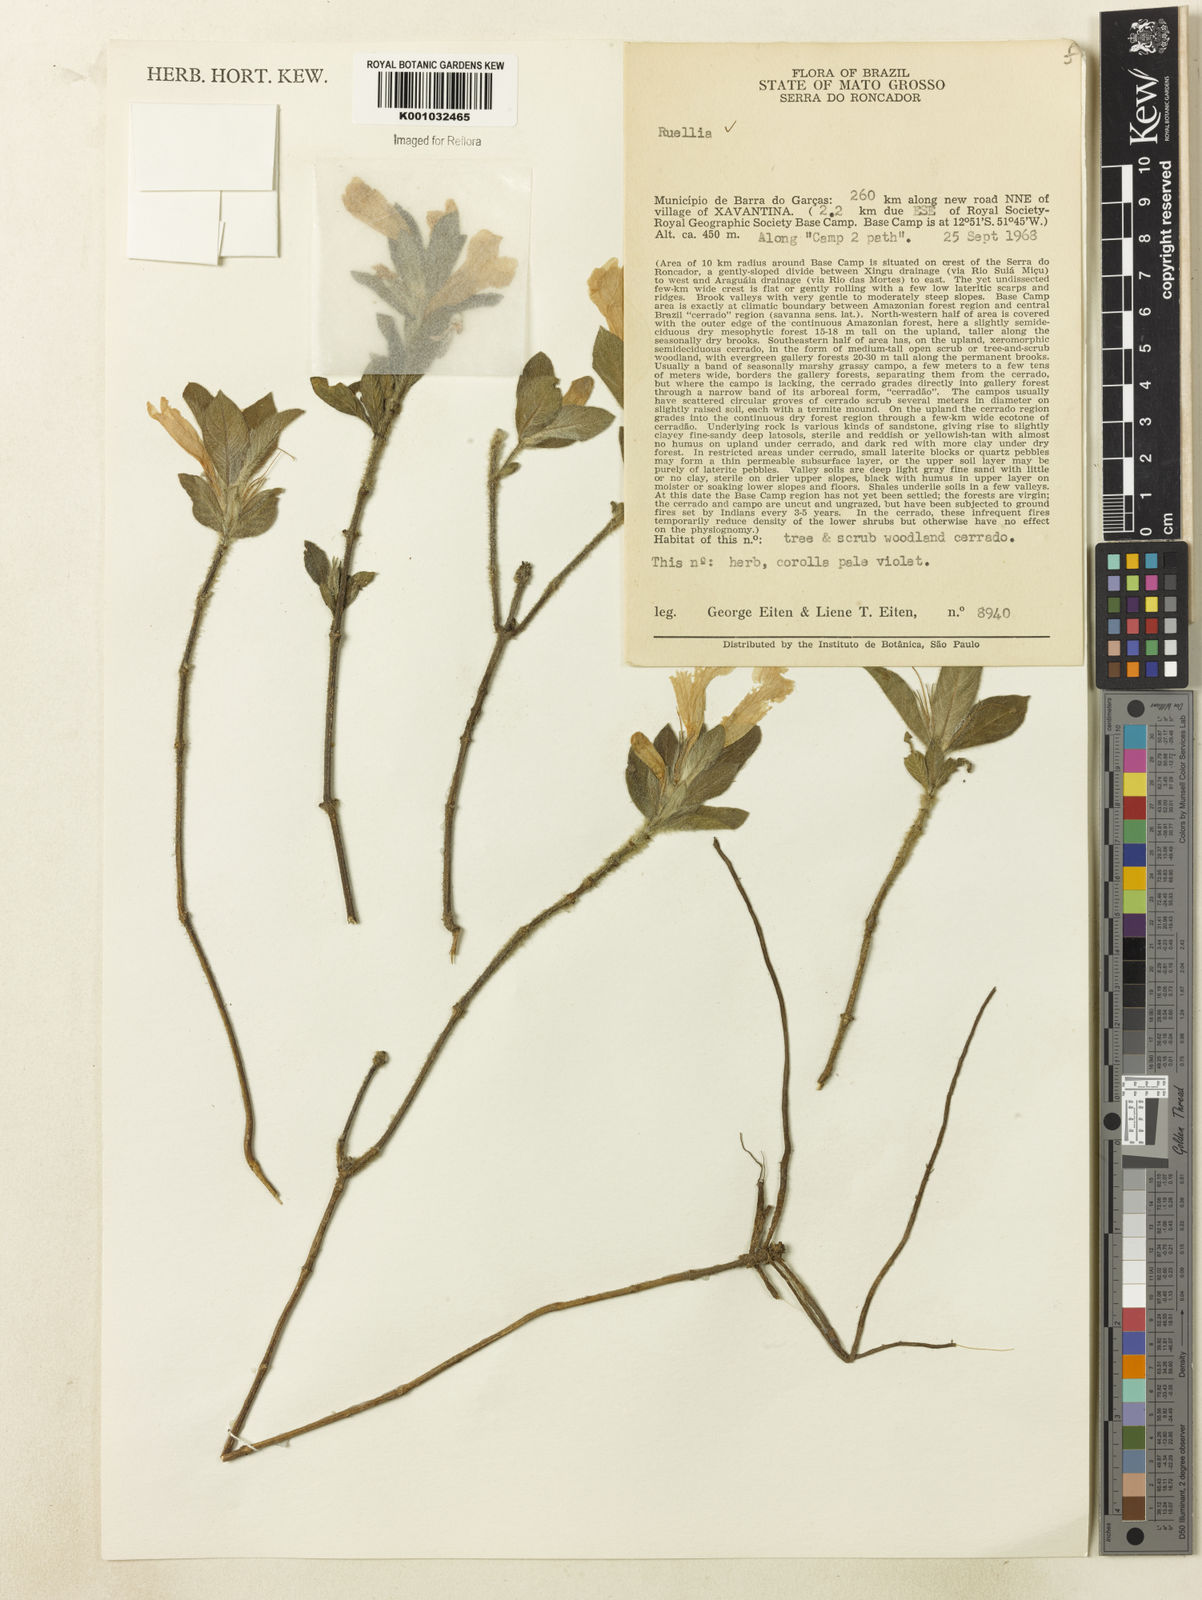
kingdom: Plantae
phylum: Tracheophyta
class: Magnoliopsida
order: Lamiales
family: Acanthaceae
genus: Ruellia
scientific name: Ruellia
